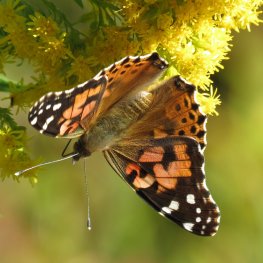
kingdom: Animalia
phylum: Arthropoda
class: Insecta
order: Lepidoptera
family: Nymphalidae
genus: Vanessa
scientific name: Vanessa cardui
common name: Painted Lady
